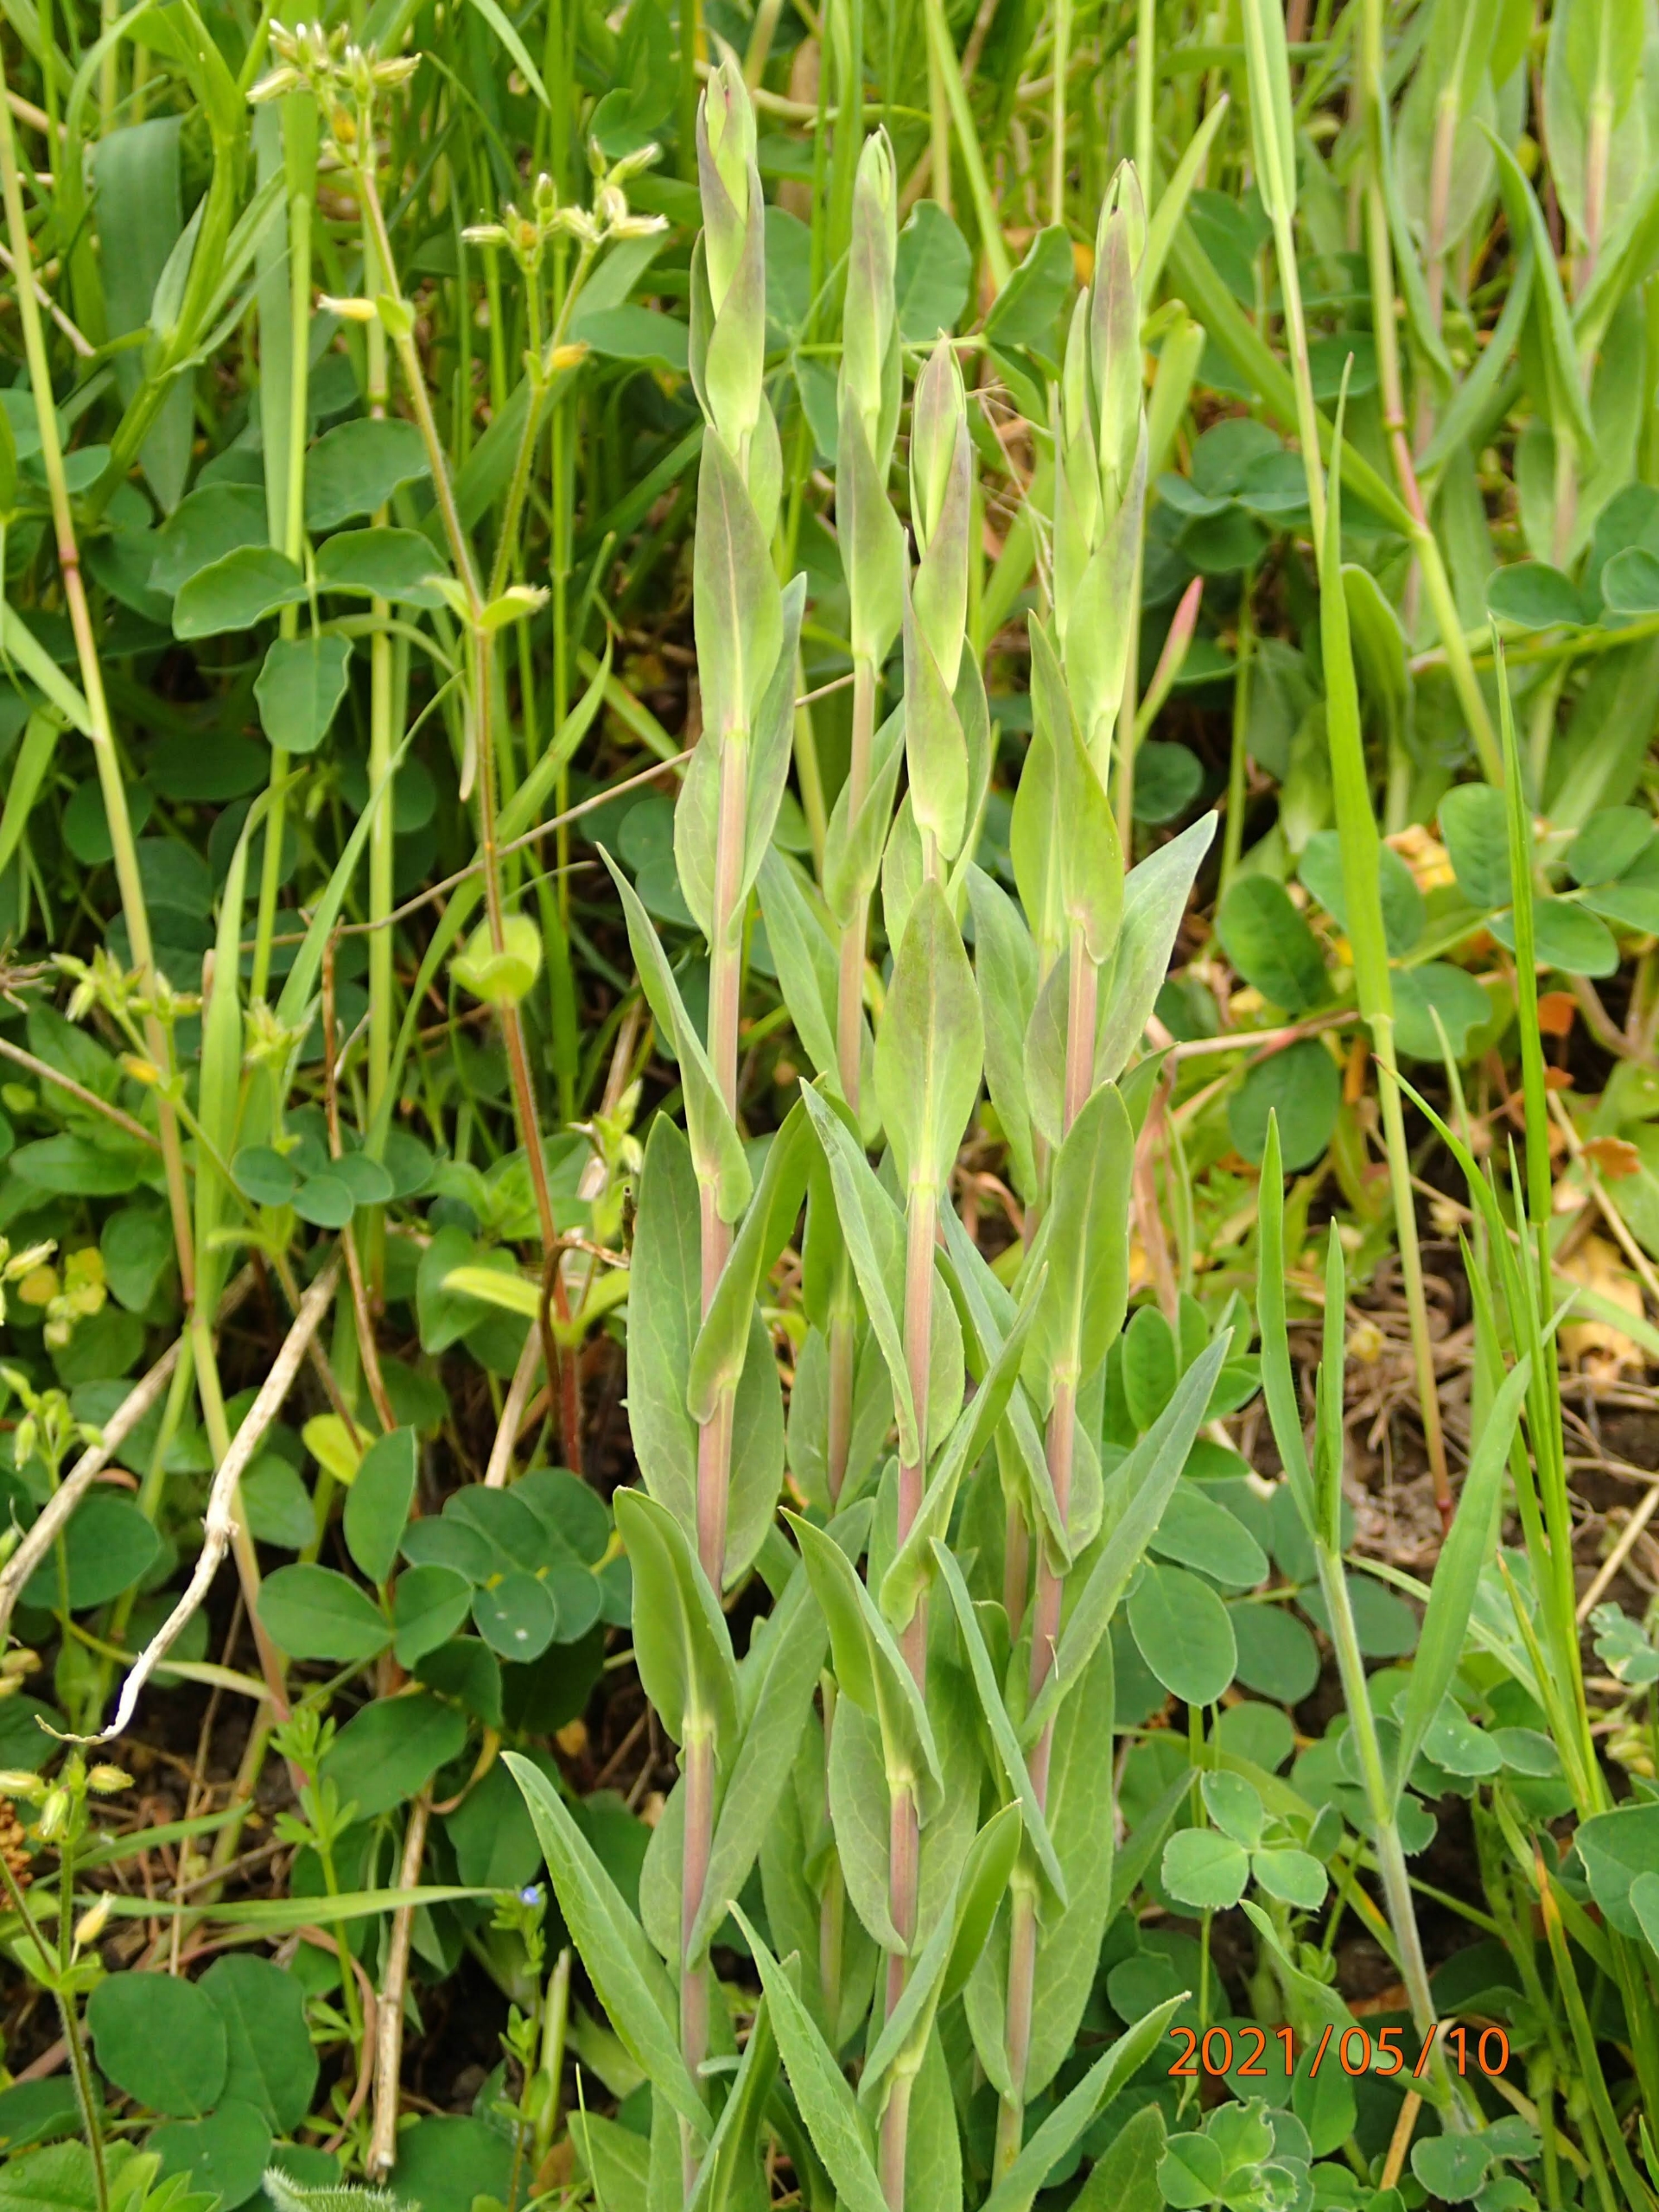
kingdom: Plantae
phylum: Tracheophyta
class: Magnoliopsida
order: Brassicales
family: Brassicaceae
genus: Turritis
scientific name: Turritis glabra
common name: Tårnurt
